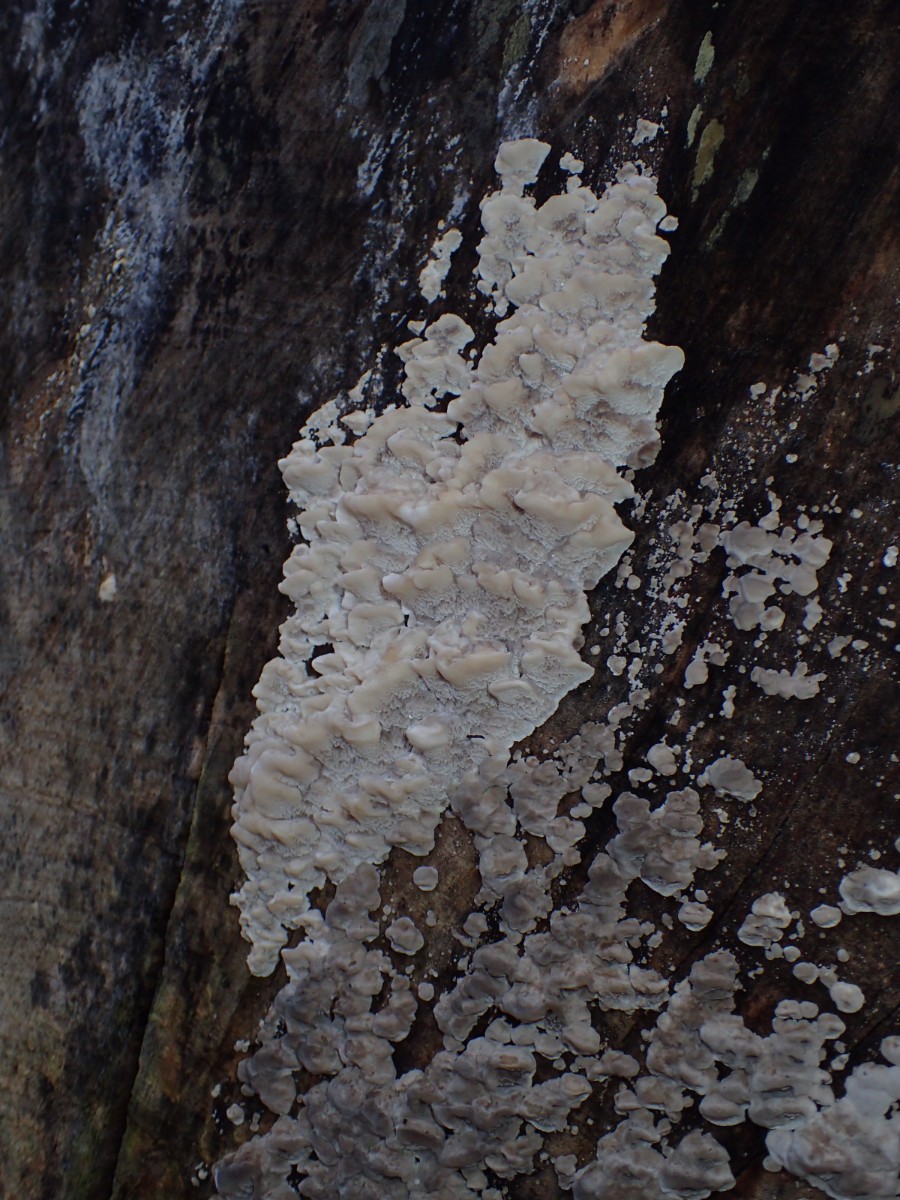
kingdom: Fungi
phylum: Basidiomycota
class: Agaricomycetes
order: Polyporales
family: Phanerochaetaceae
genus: Bjerkandera
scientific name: Bjerkandera
